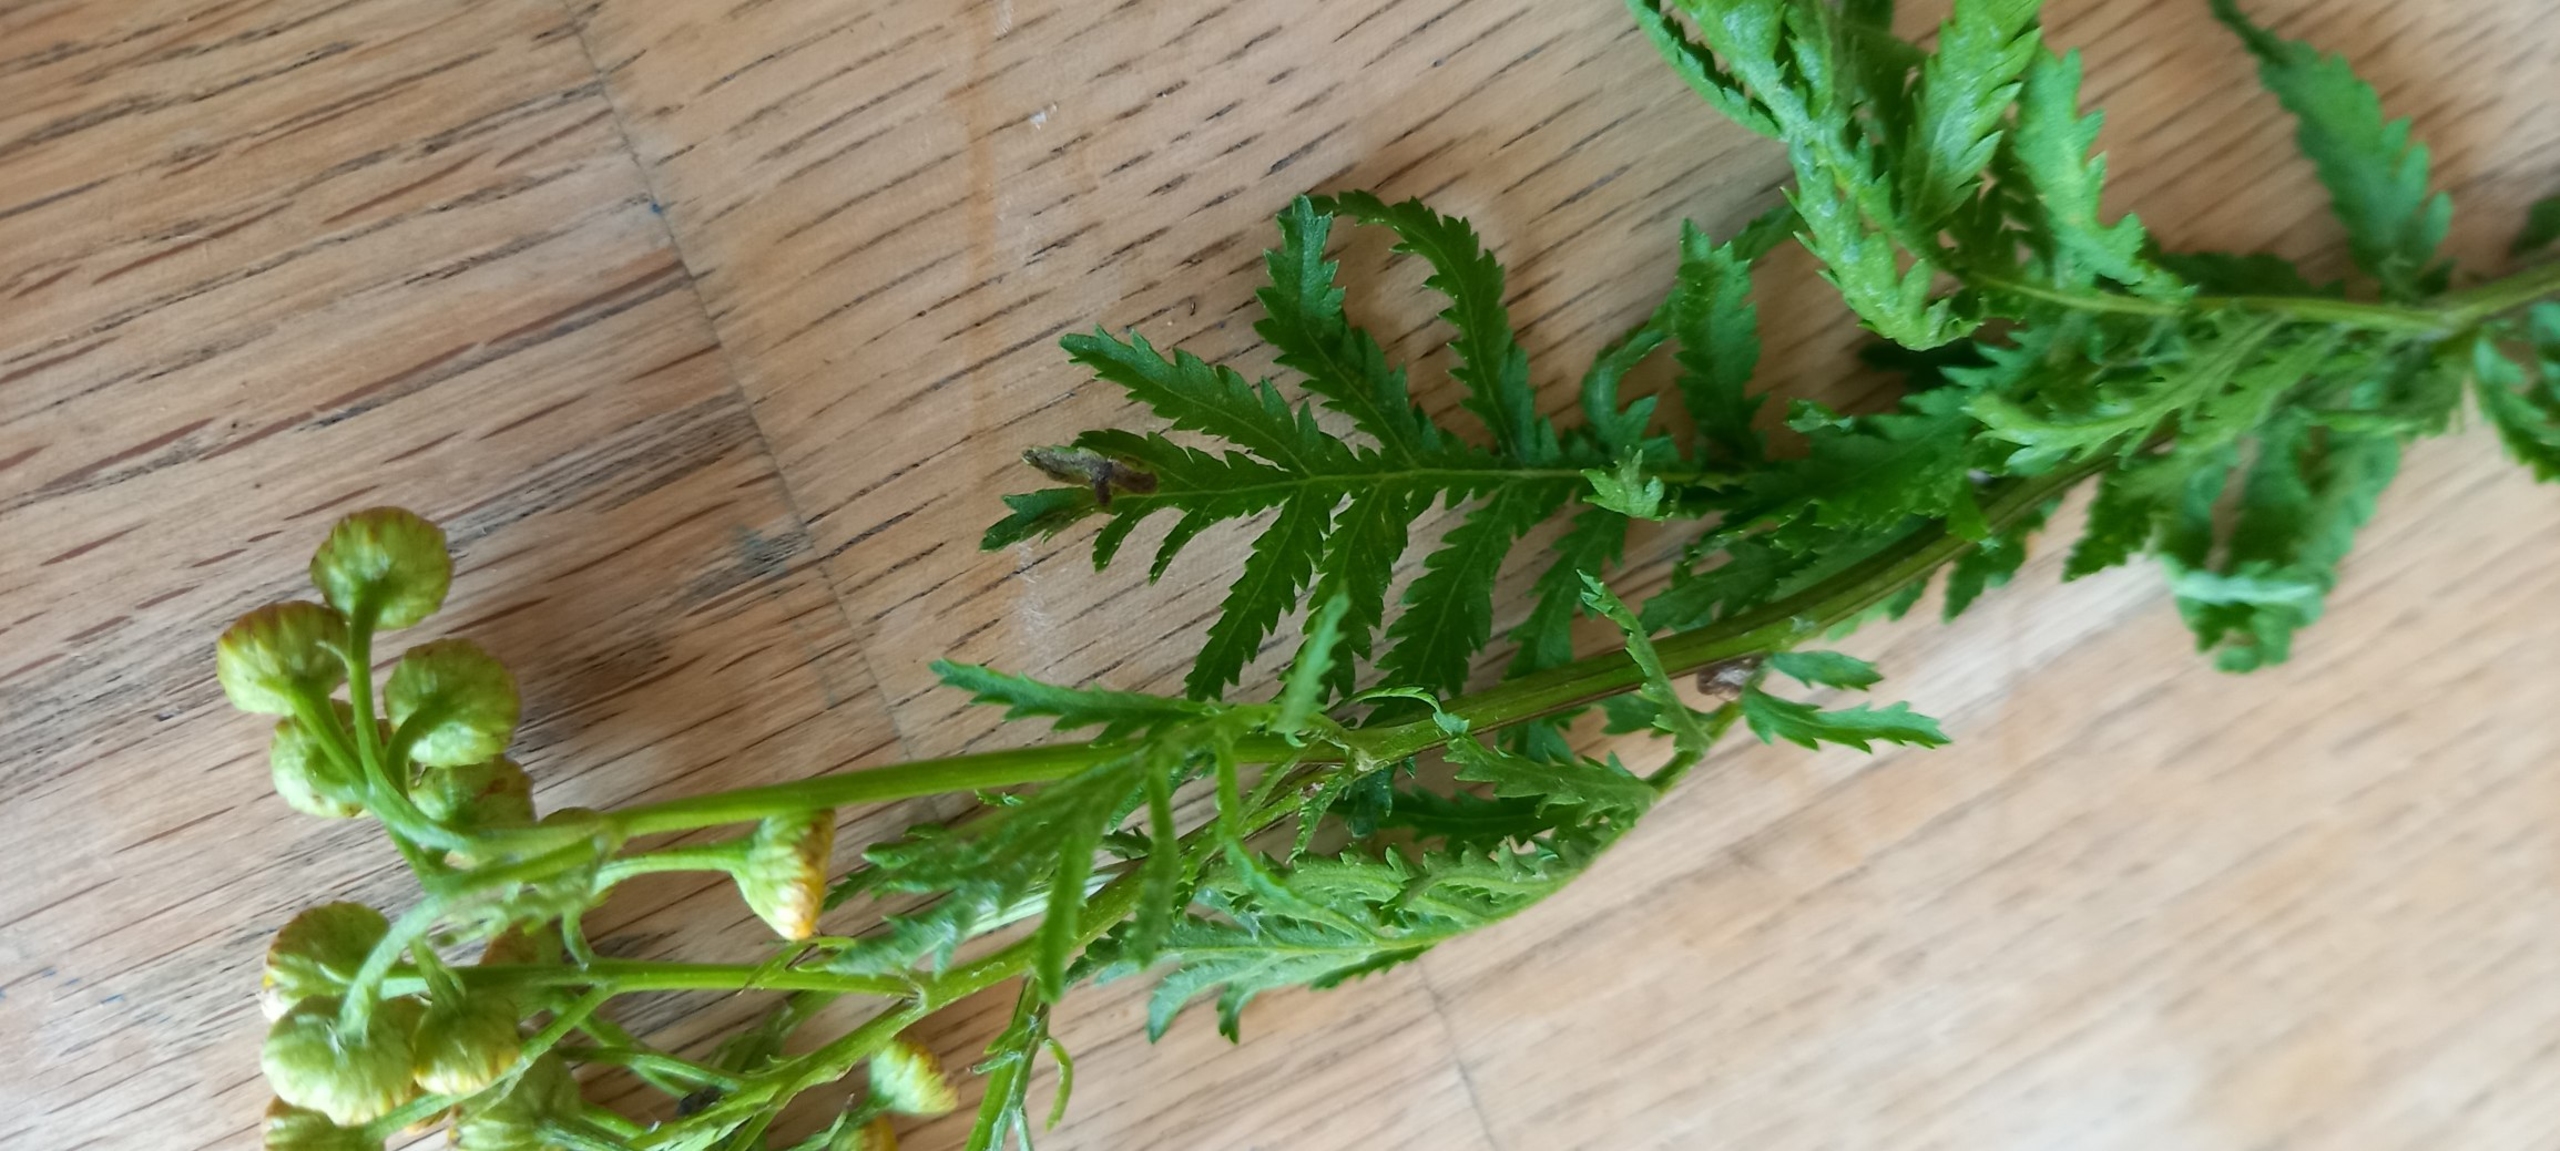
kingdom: Plantae
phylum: Tracheophyta
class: Magnoliopsida
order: Asterales
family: Asteraceae
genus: Tanacetum
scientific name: Tanacetum vulgare
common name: Rejnfan
